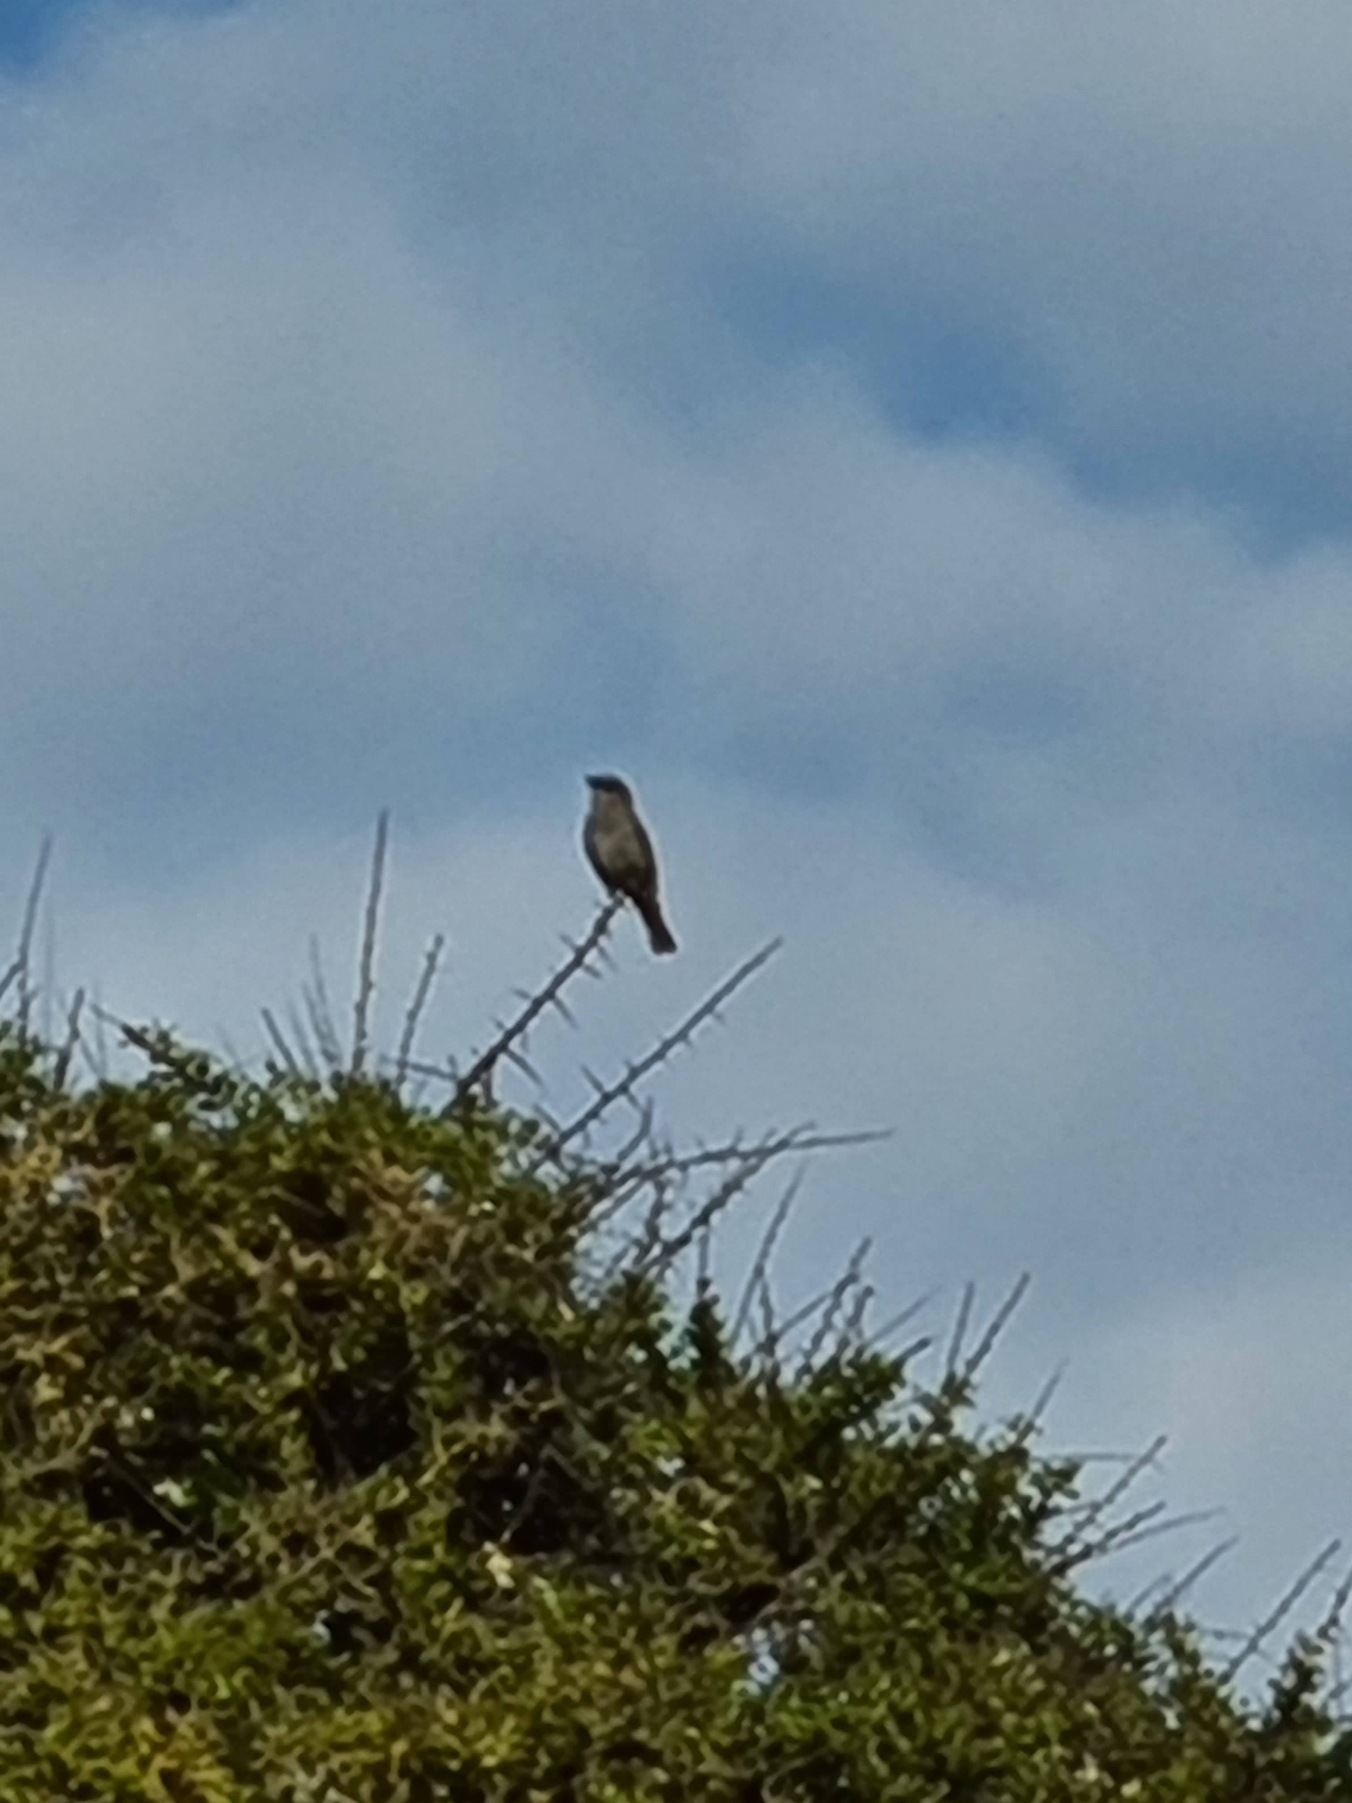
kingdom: Animalia
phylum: Chordata
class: Aves
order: Passeriformes
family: Laniidae
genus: Lanius
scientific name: Lanius collurio
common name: Rødrygget tornskade
